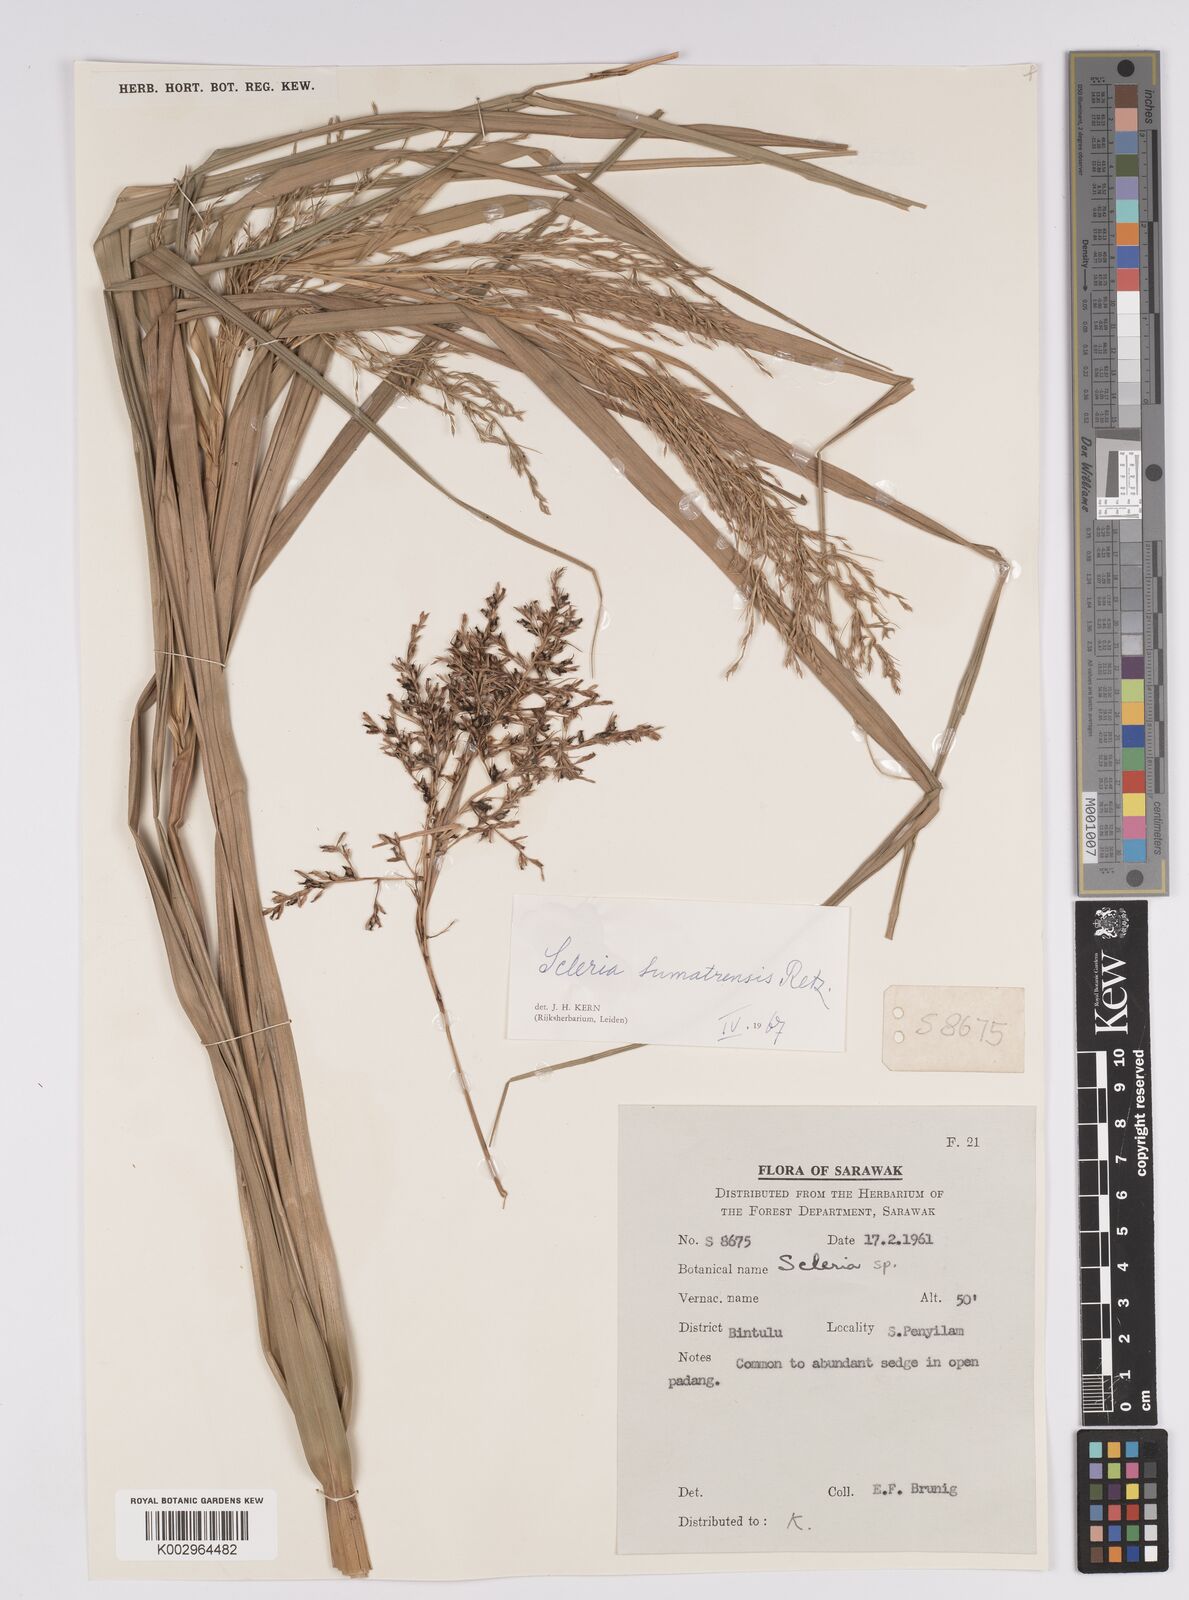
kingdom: Plantae
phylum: Tracheophyta
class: Liliopsida
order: Poales
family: Cyperaceae
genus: Scleria
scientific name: Scleria sumatrensis
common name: Sumatran scleria
